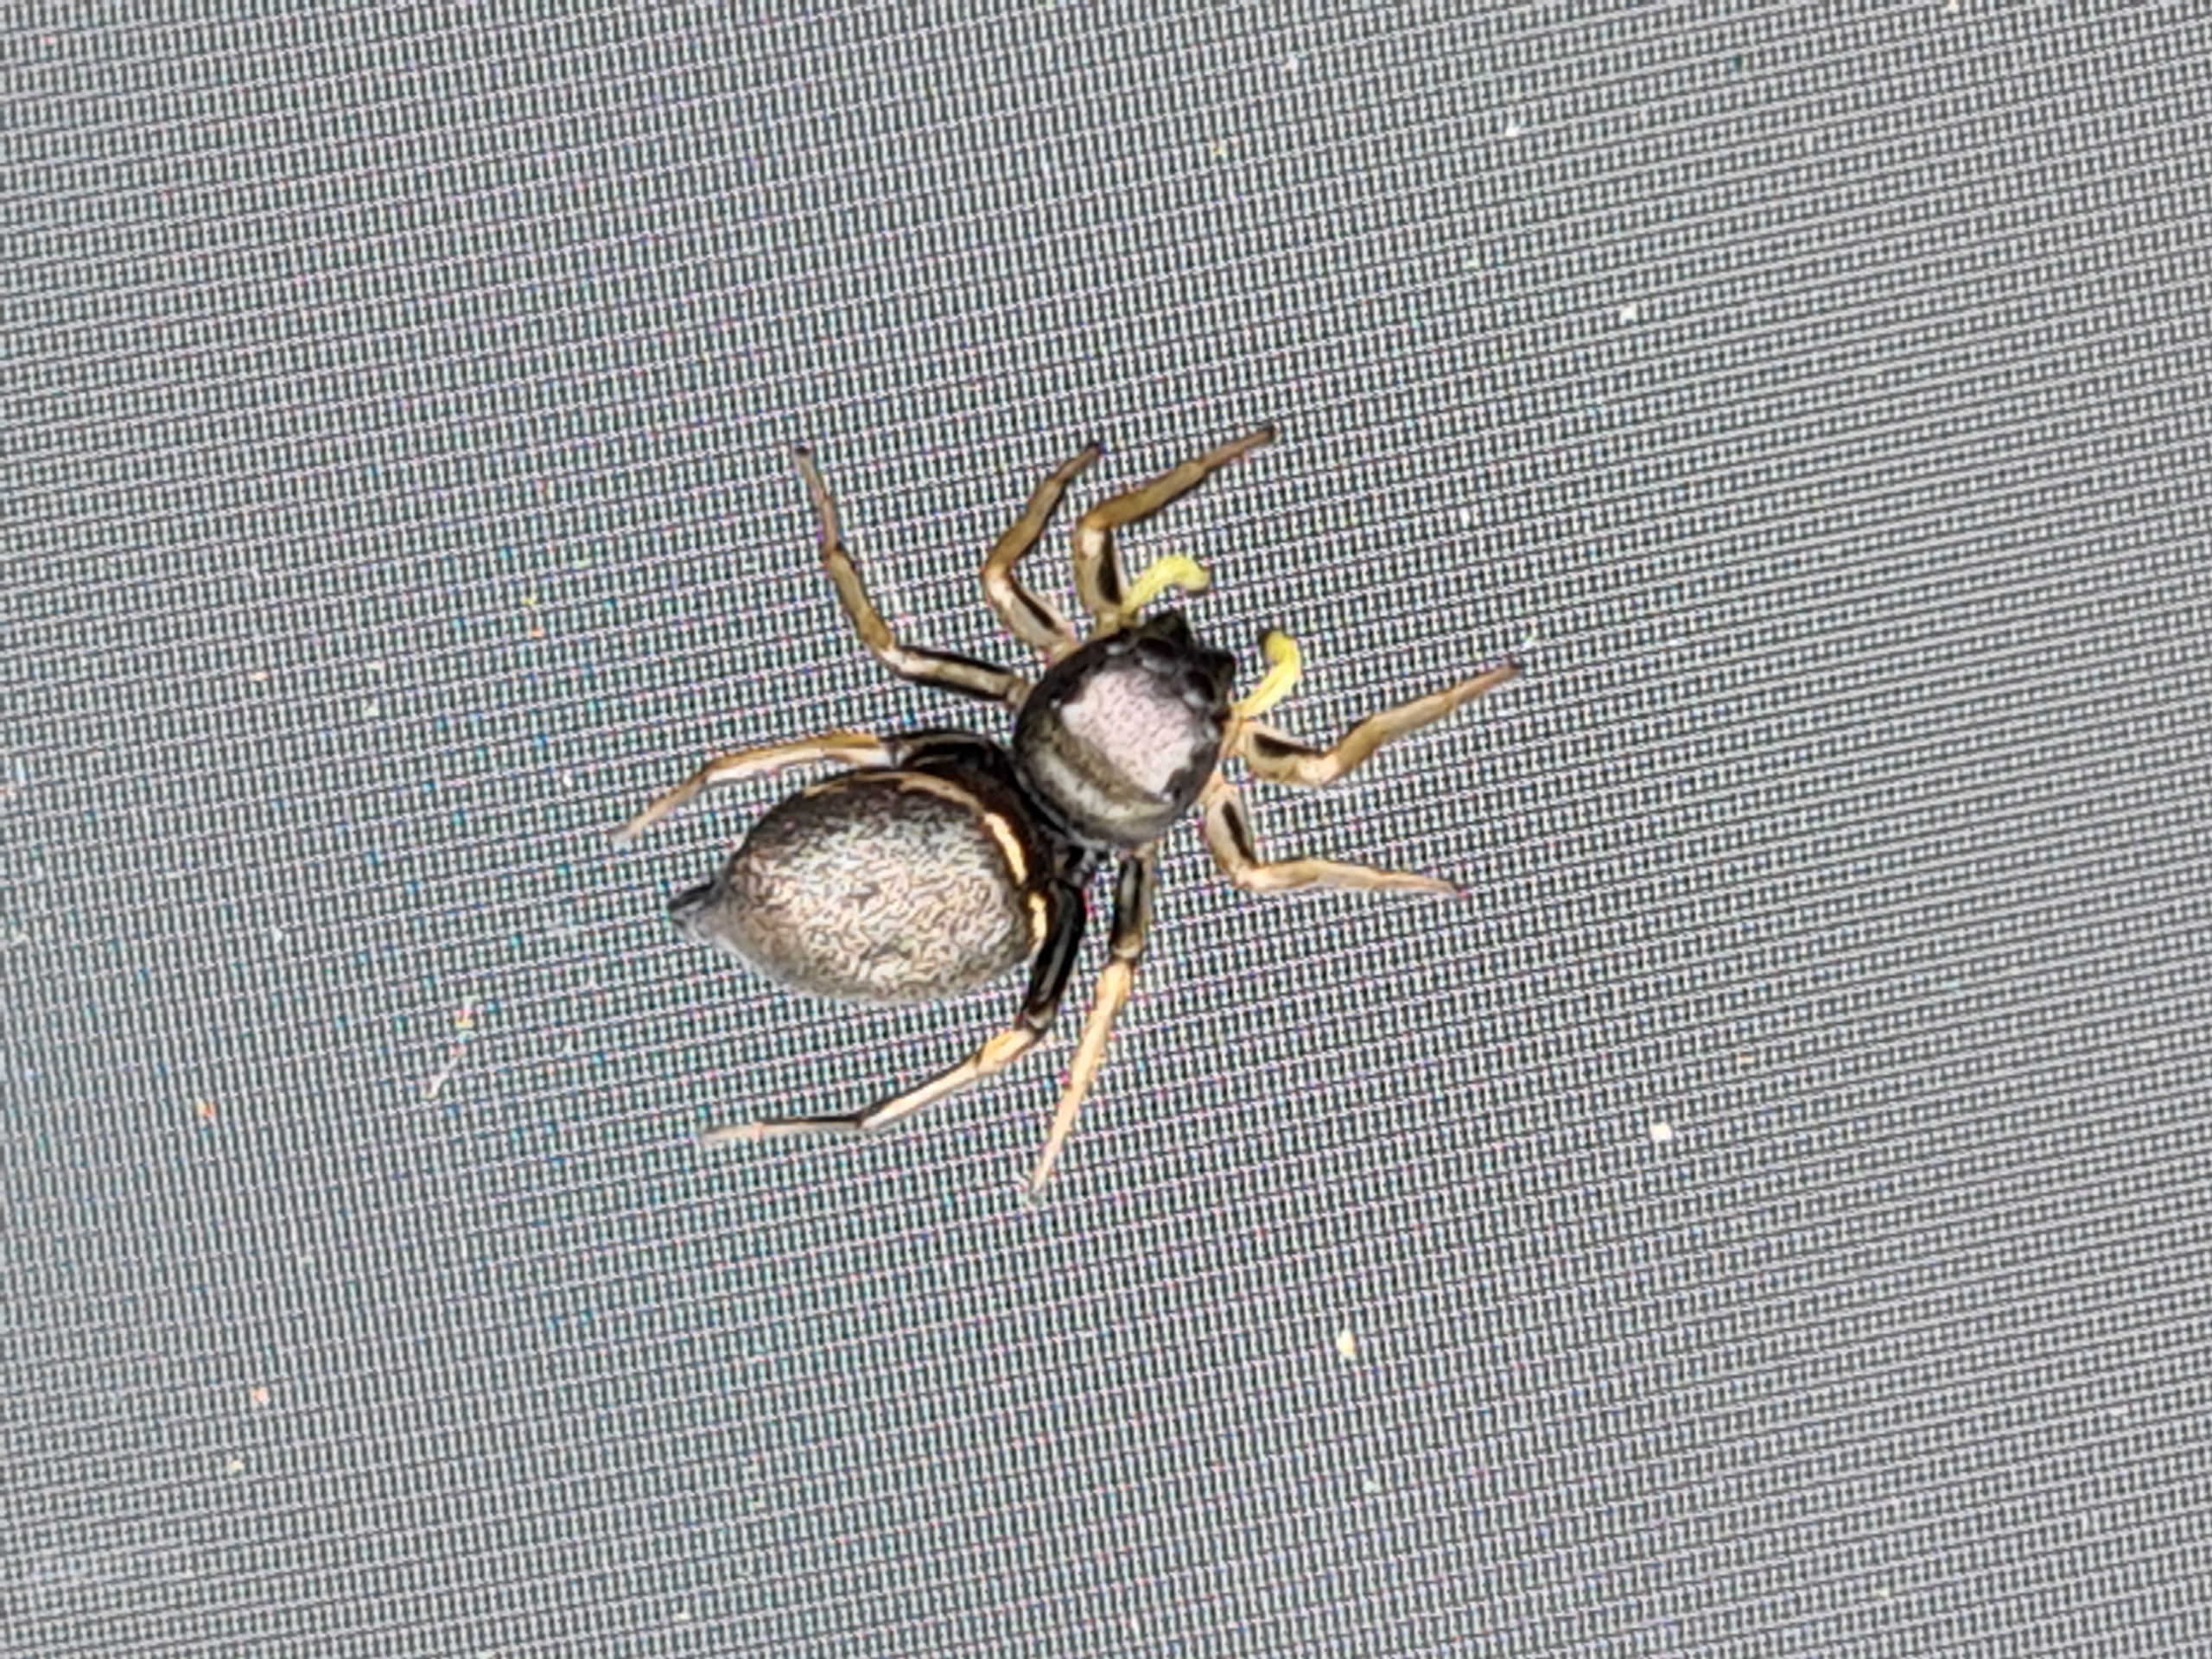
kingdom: Animalia
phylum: Arthropoda
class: Arachnida
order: Araneae
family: Salticidae
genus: Heliophanus
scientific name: Heliophanus
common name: Sortspringerslægten
